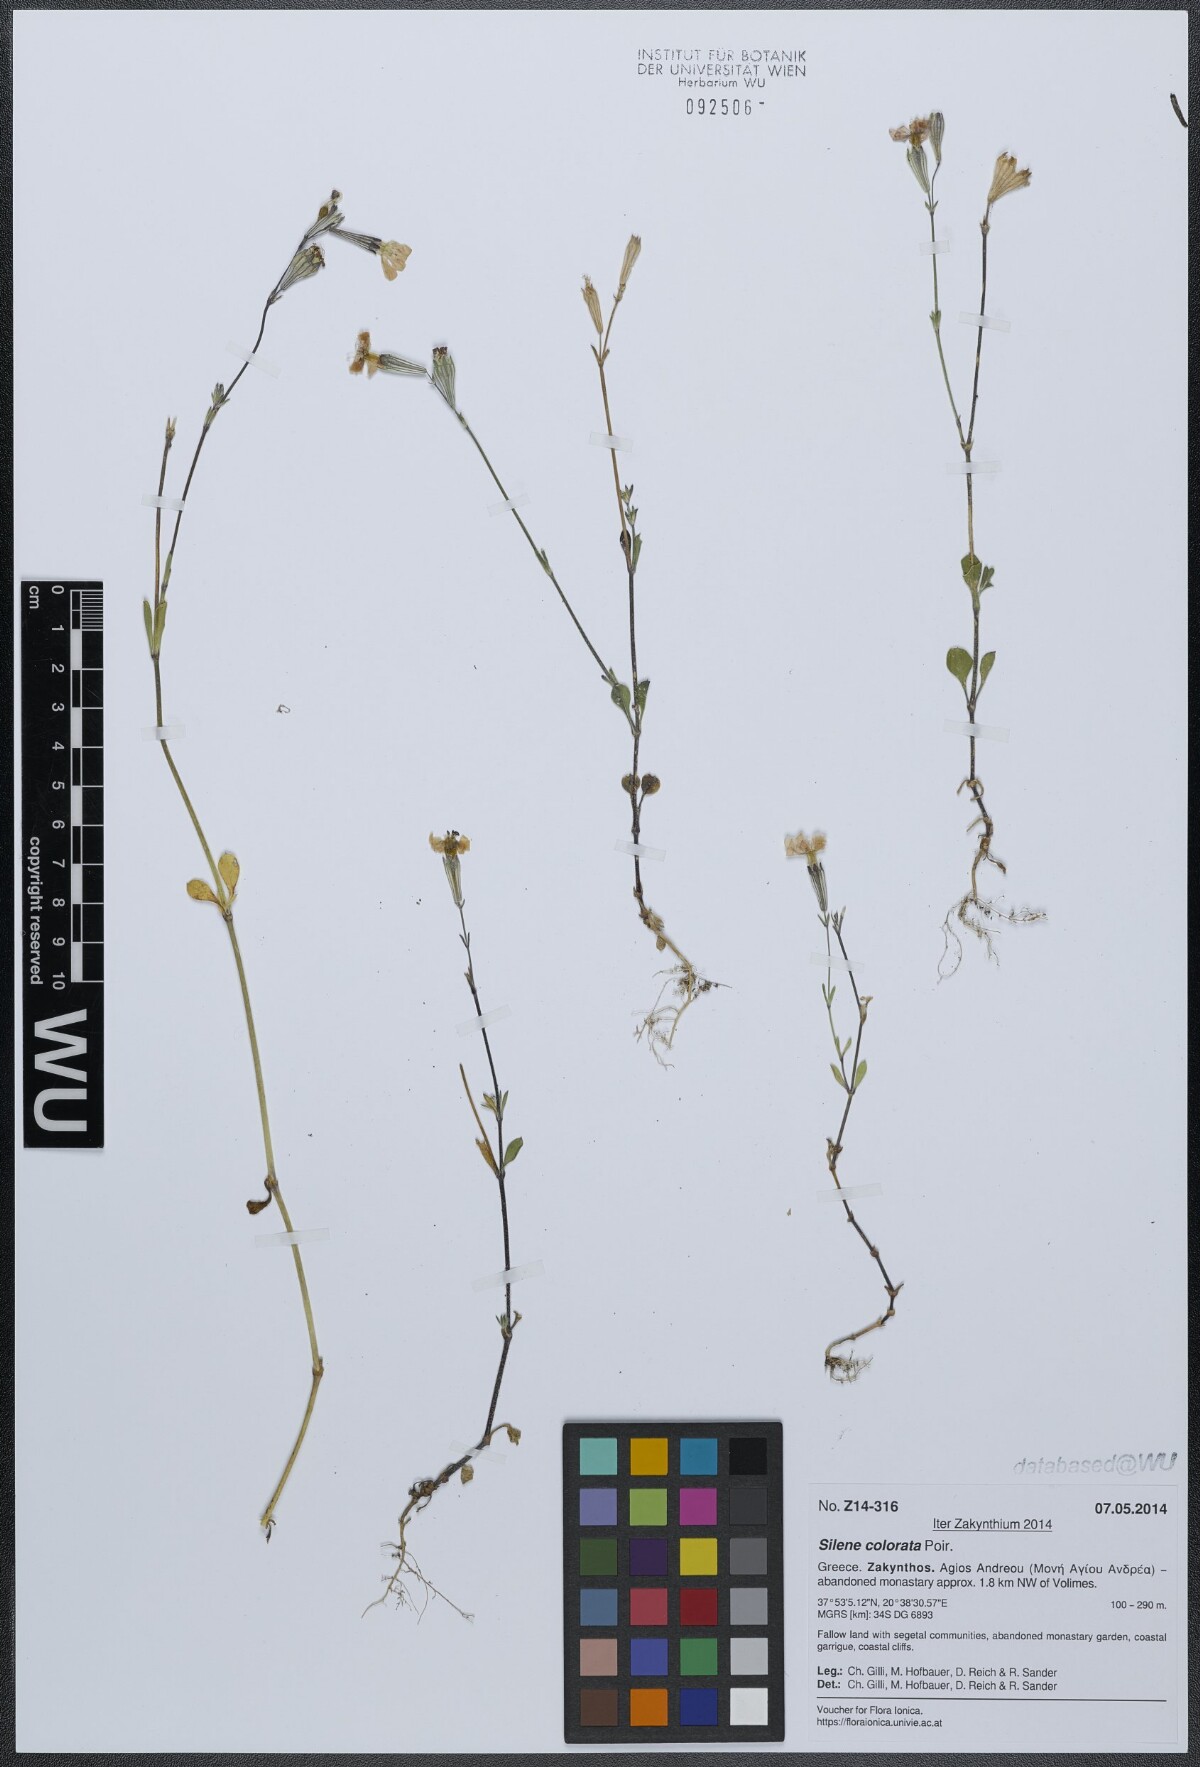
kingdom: Plantae
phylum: Tracheophyta
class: Magnoliopsida
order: Caryophyllales
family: Caryophyllaceae
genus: Silene
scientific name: Silene colorata
